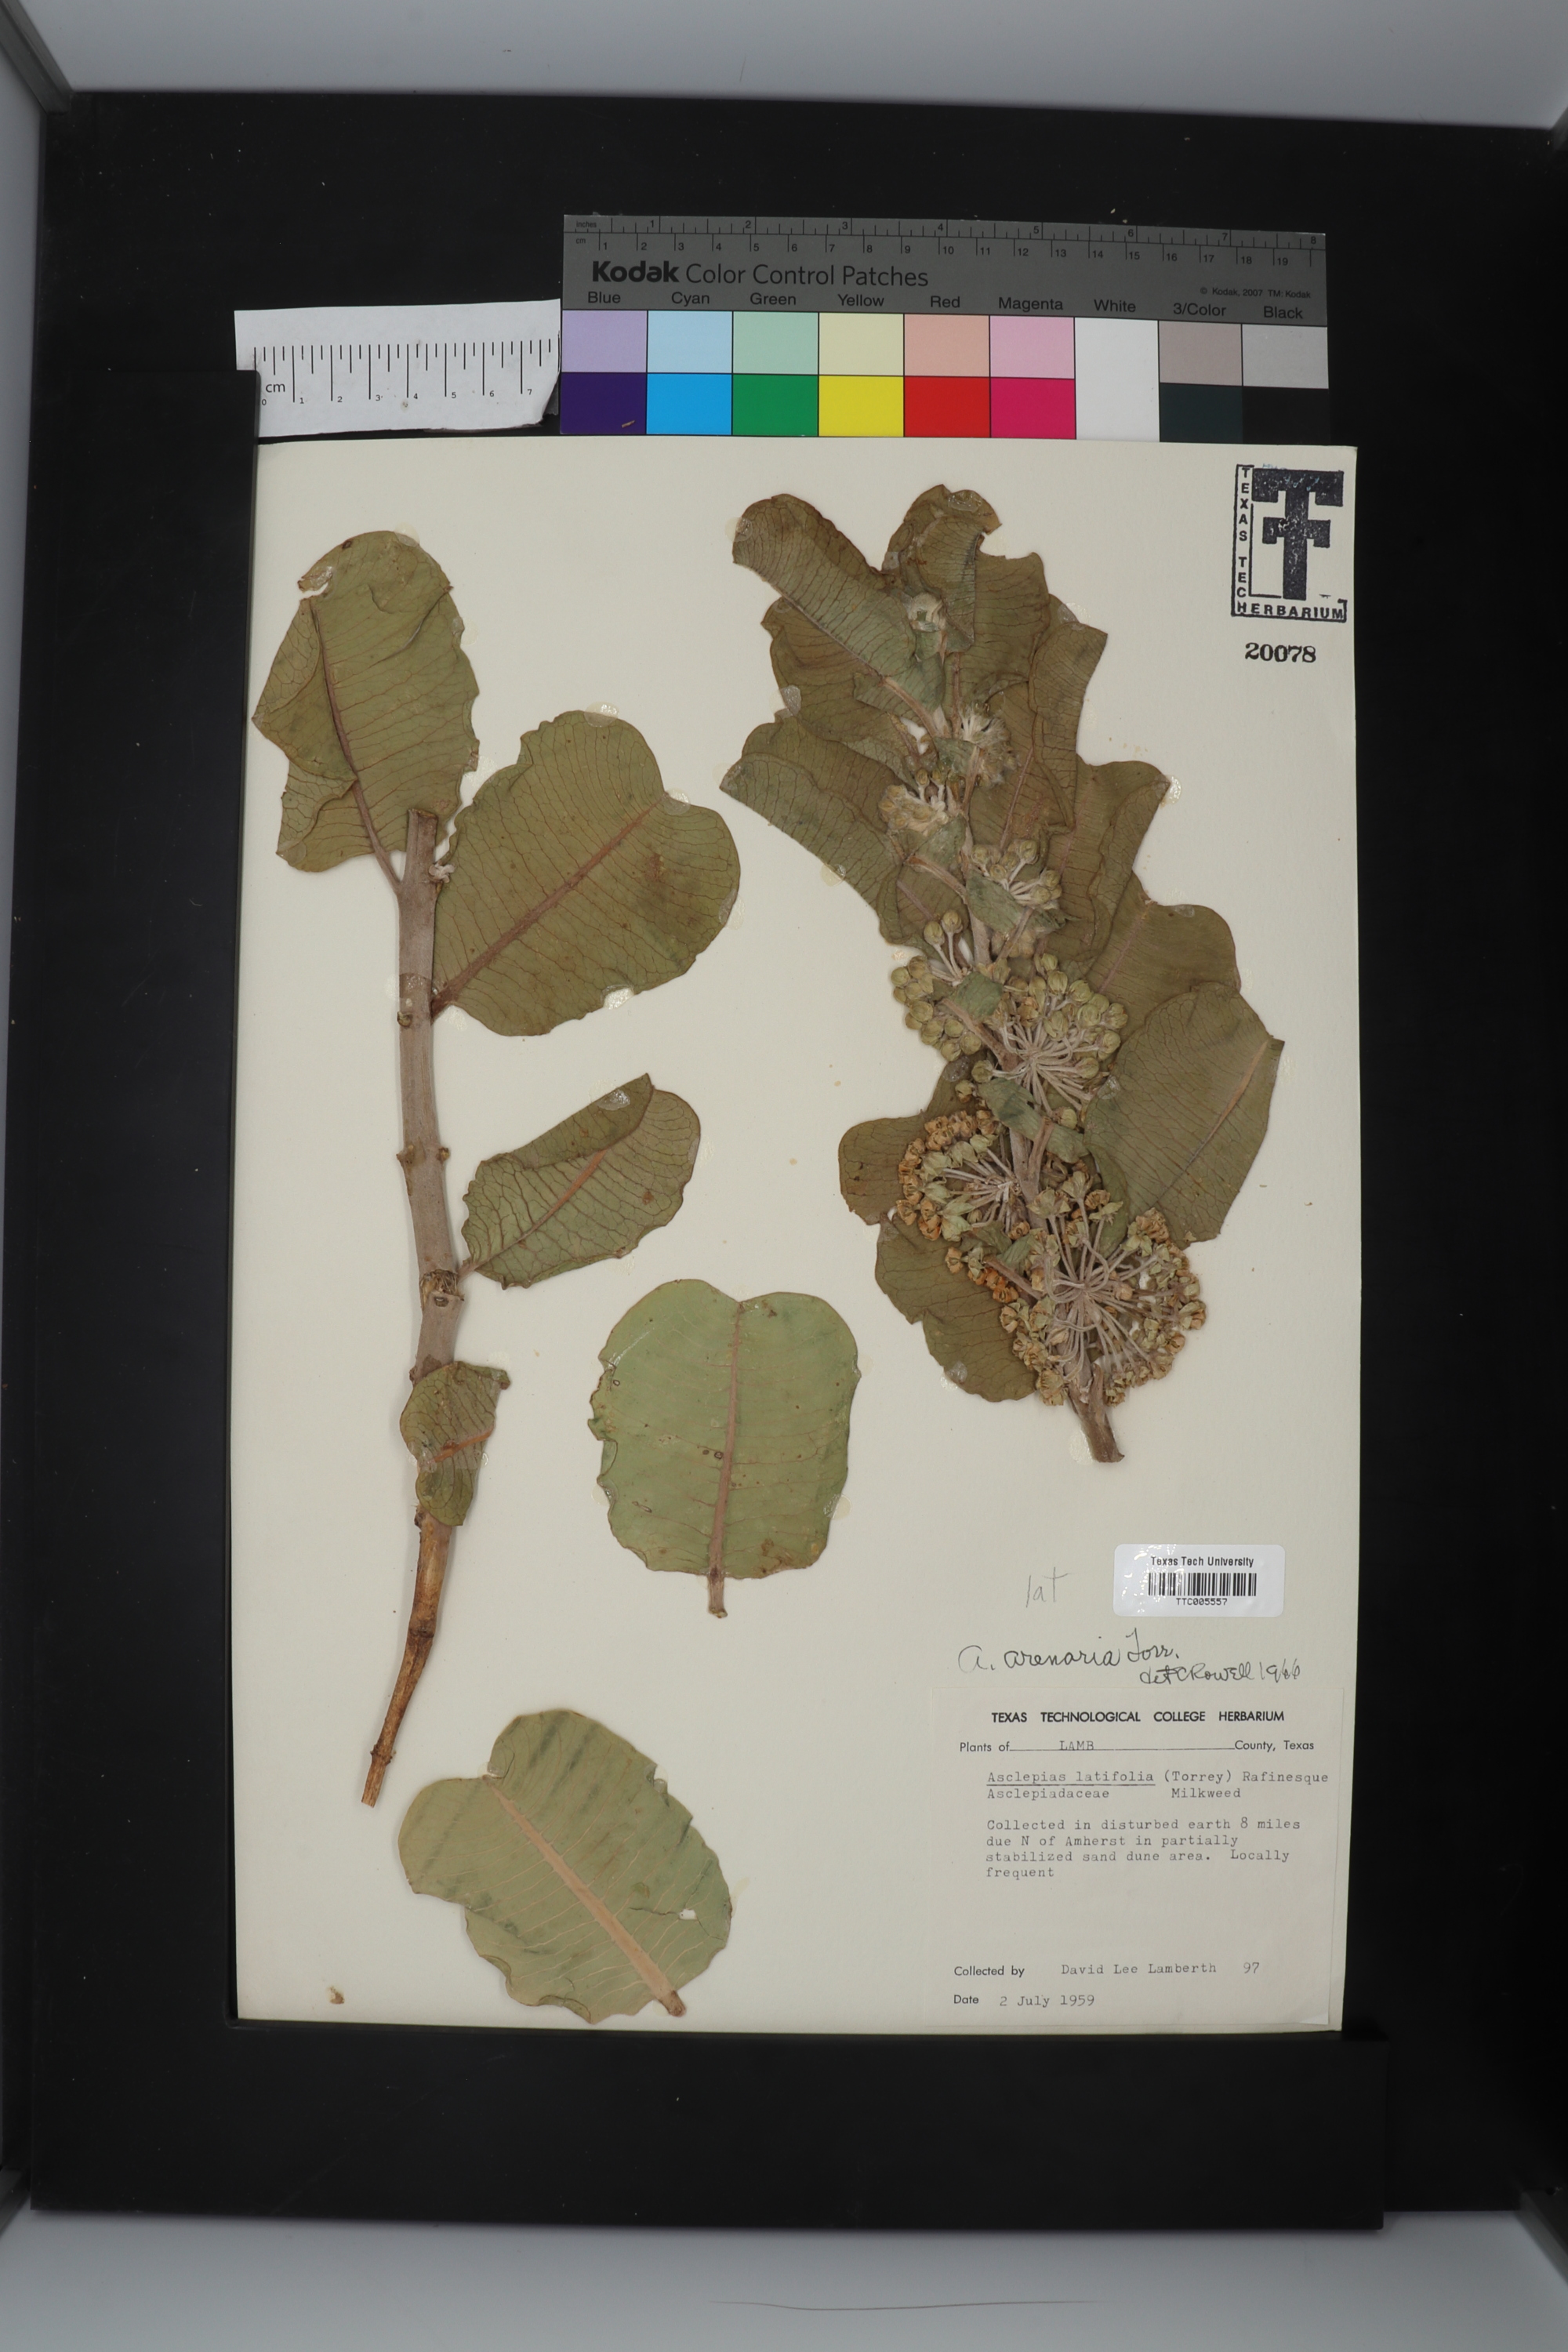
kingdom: Plantae
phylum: Tracheophyta
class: Magnoliopsida
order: Gentianales
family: Apocynaceae
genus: Asclepias
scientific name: Asclepias arenaria
